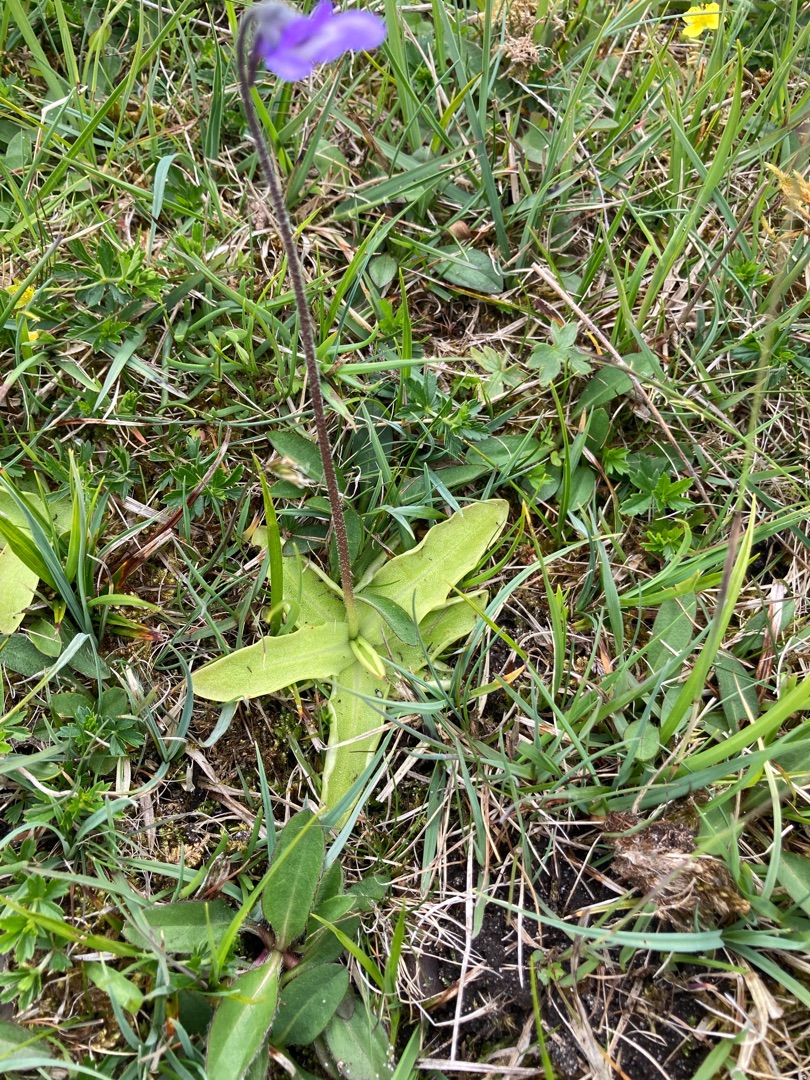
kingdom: Plantae
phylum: Tracheophyta
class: Magnoliopsida
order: Lamiales
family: Lentibulariaceae
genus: Pinguicula
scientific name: Pinguicula vulgaris
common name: Vibefedt
